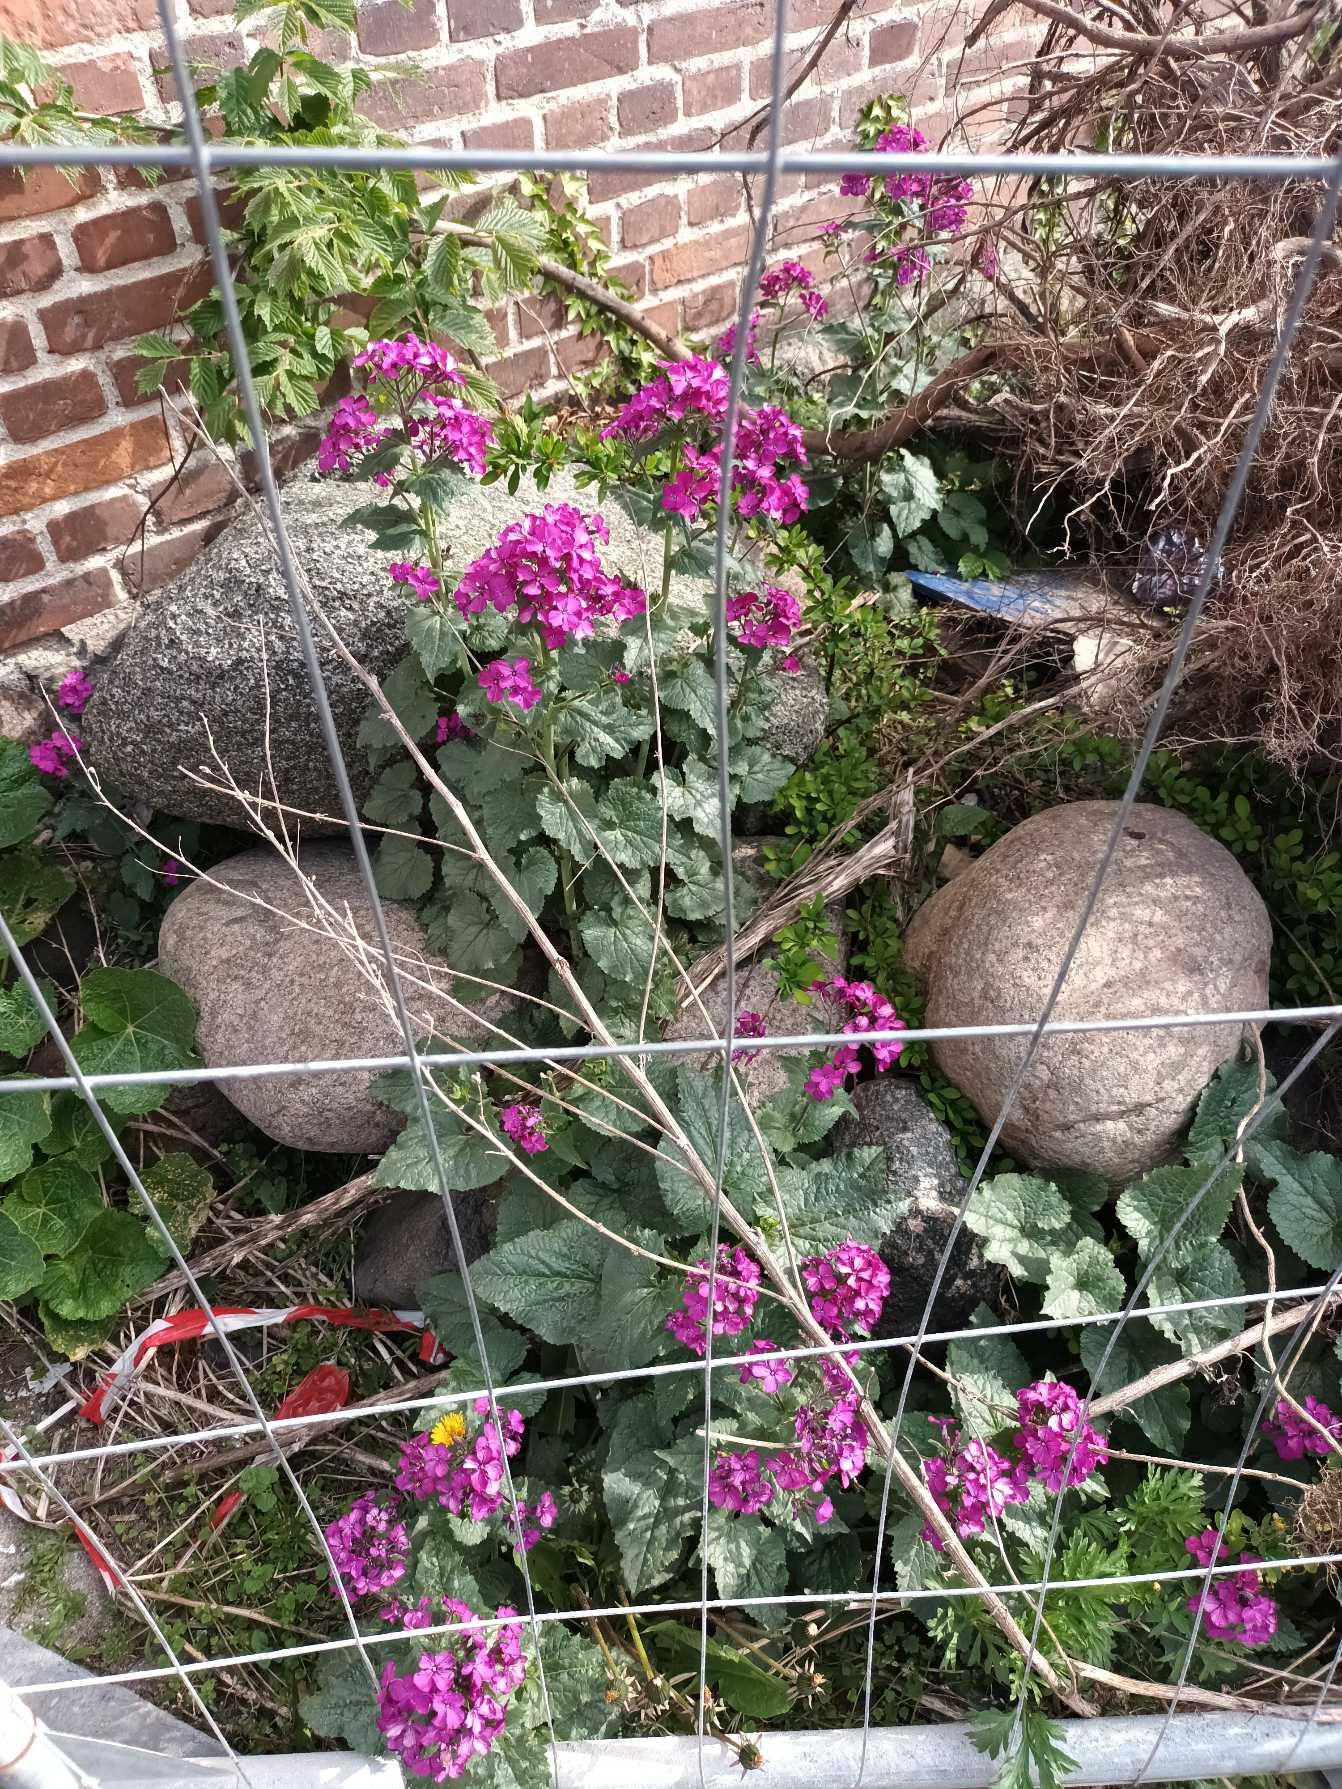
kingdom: Plantae
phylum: Tracheophyta
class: Magnoliopsida
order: Brassicales
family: Brassicaceae
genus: Lunaria
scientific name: Lunaria annua
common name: Judaspenge
